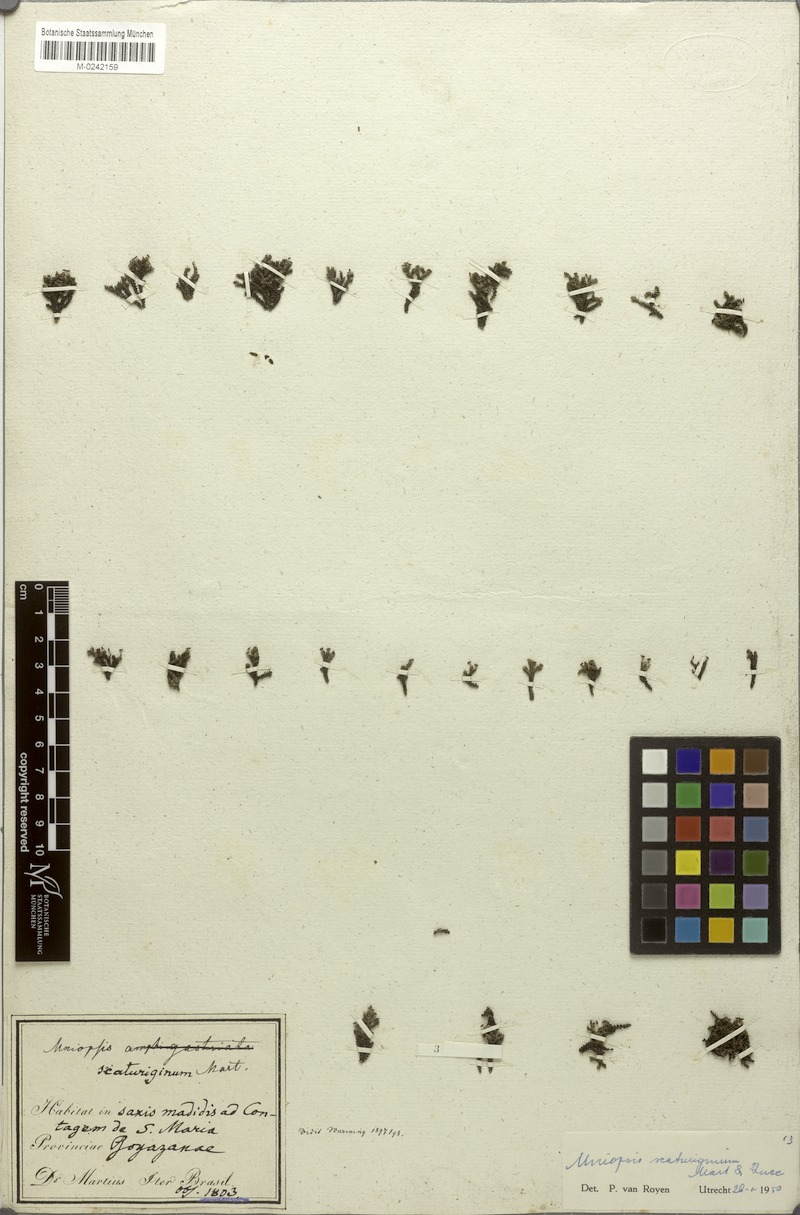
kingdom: Plantae
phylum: Tracheophyta
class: Magnoliopsida
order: Malpighiales
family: Podostemaceae
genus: Podostemum
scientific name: Podostemum scaturiginum
